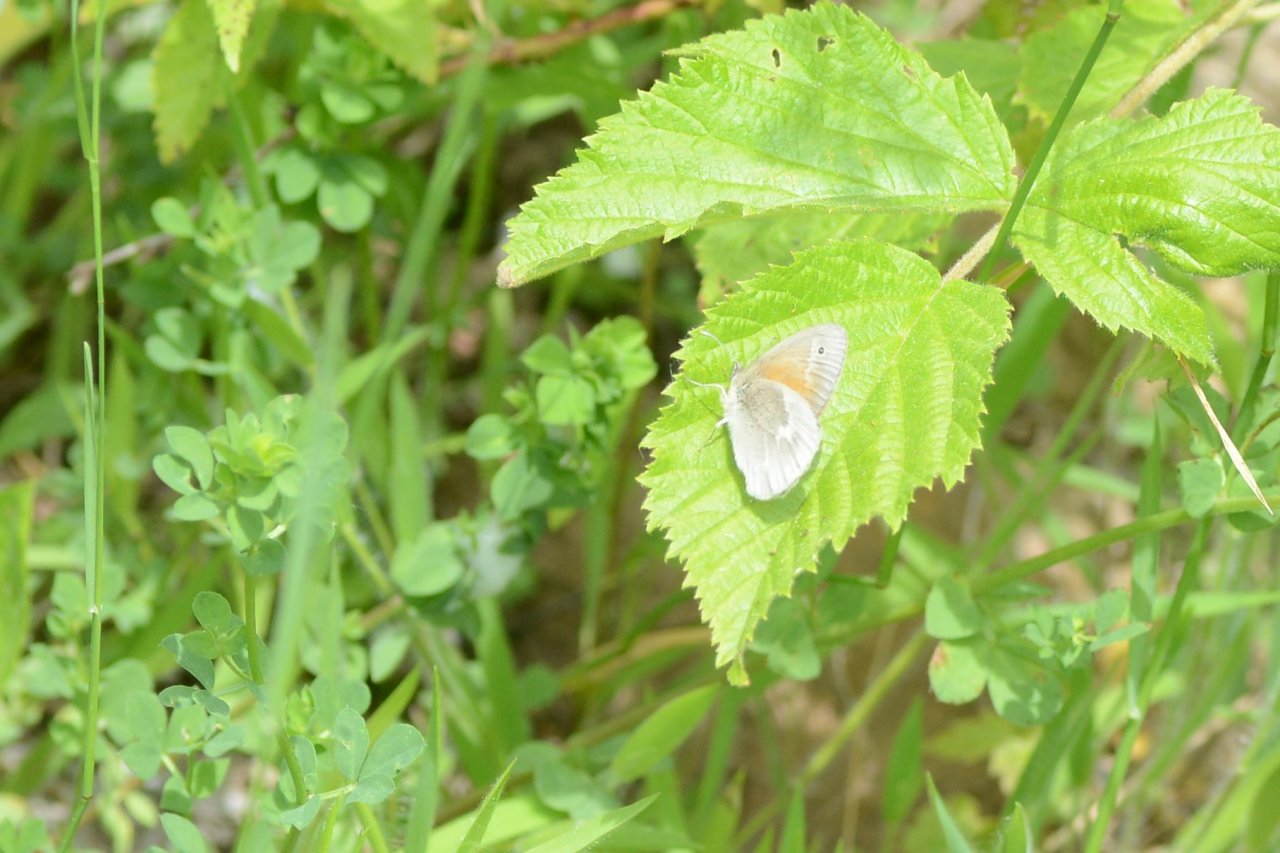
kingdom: Animalia
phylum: Arthropoda
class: Insecta
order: Lepidoptera
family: Nymphalidae
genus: Coenonympha
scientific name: Coenonympha tullia
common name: Large Heath
